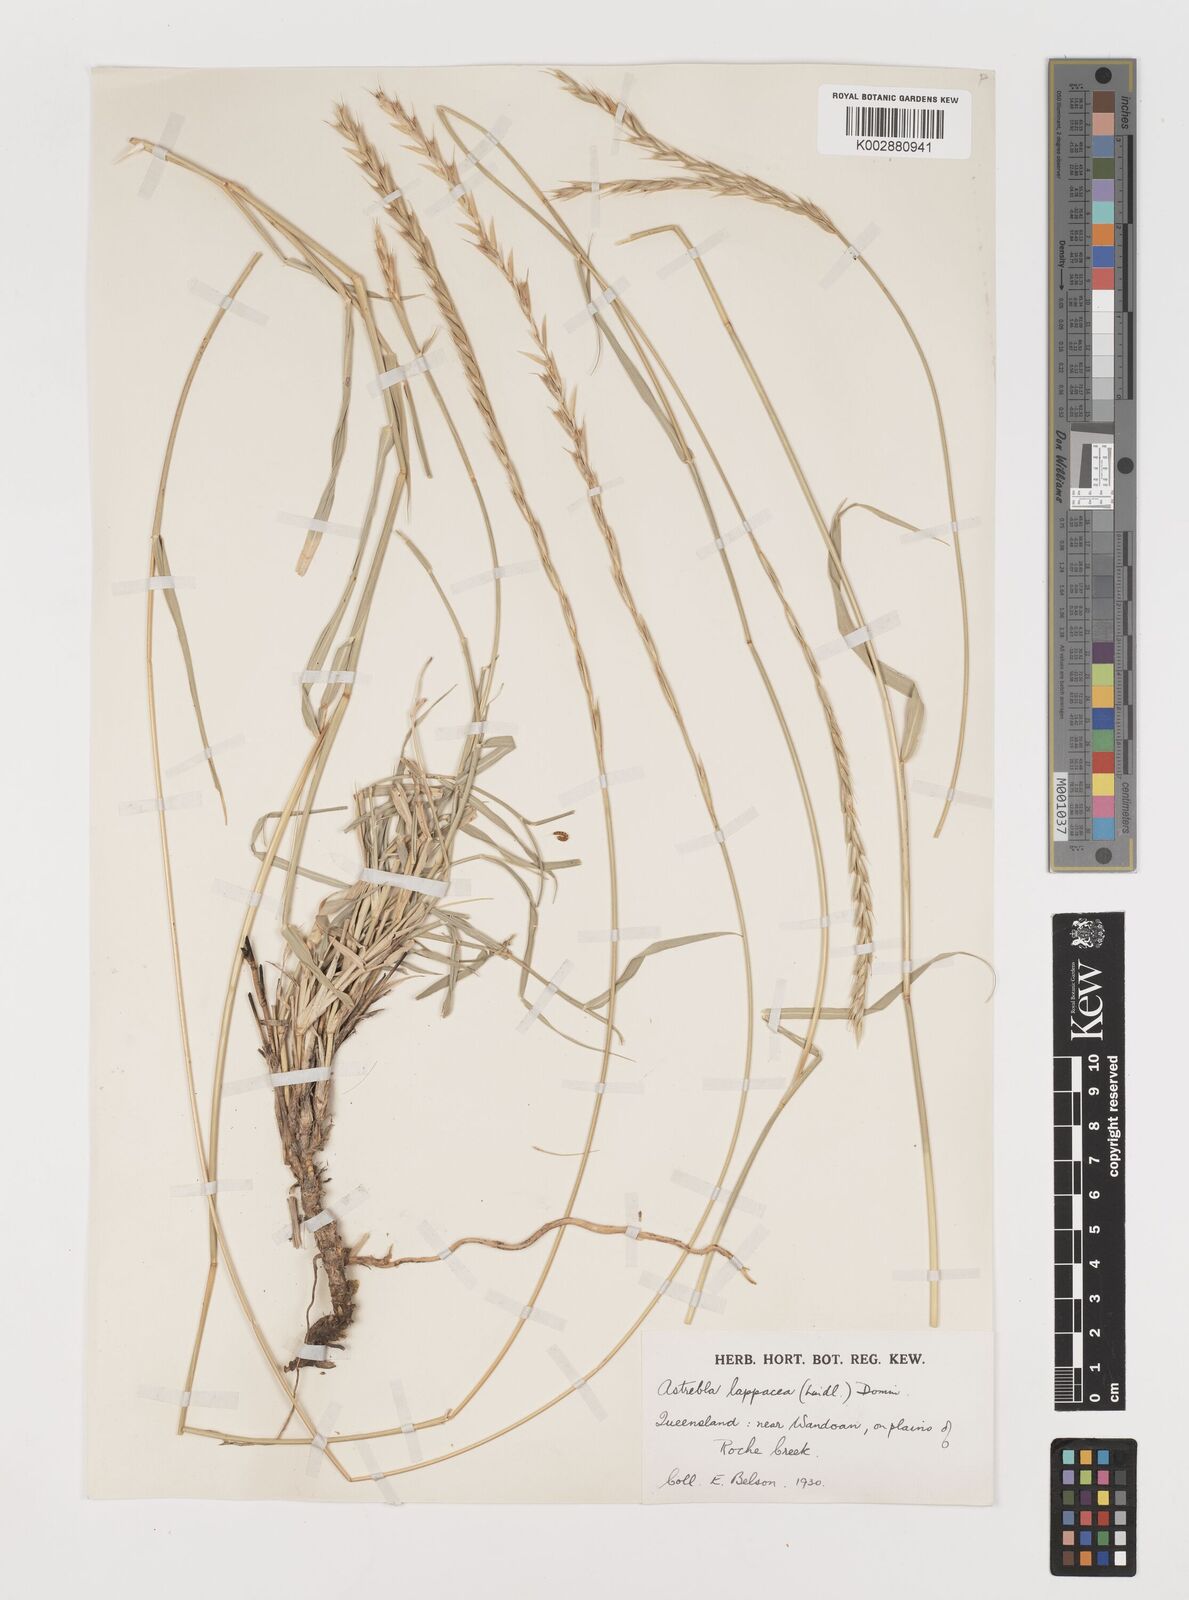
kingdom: Plantae
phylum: Tracheophyta
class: Liliopsida
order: Poales
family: Poaceae
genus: Astrebla
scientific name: Astrebla lappacea
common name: Curly mitchell grass
